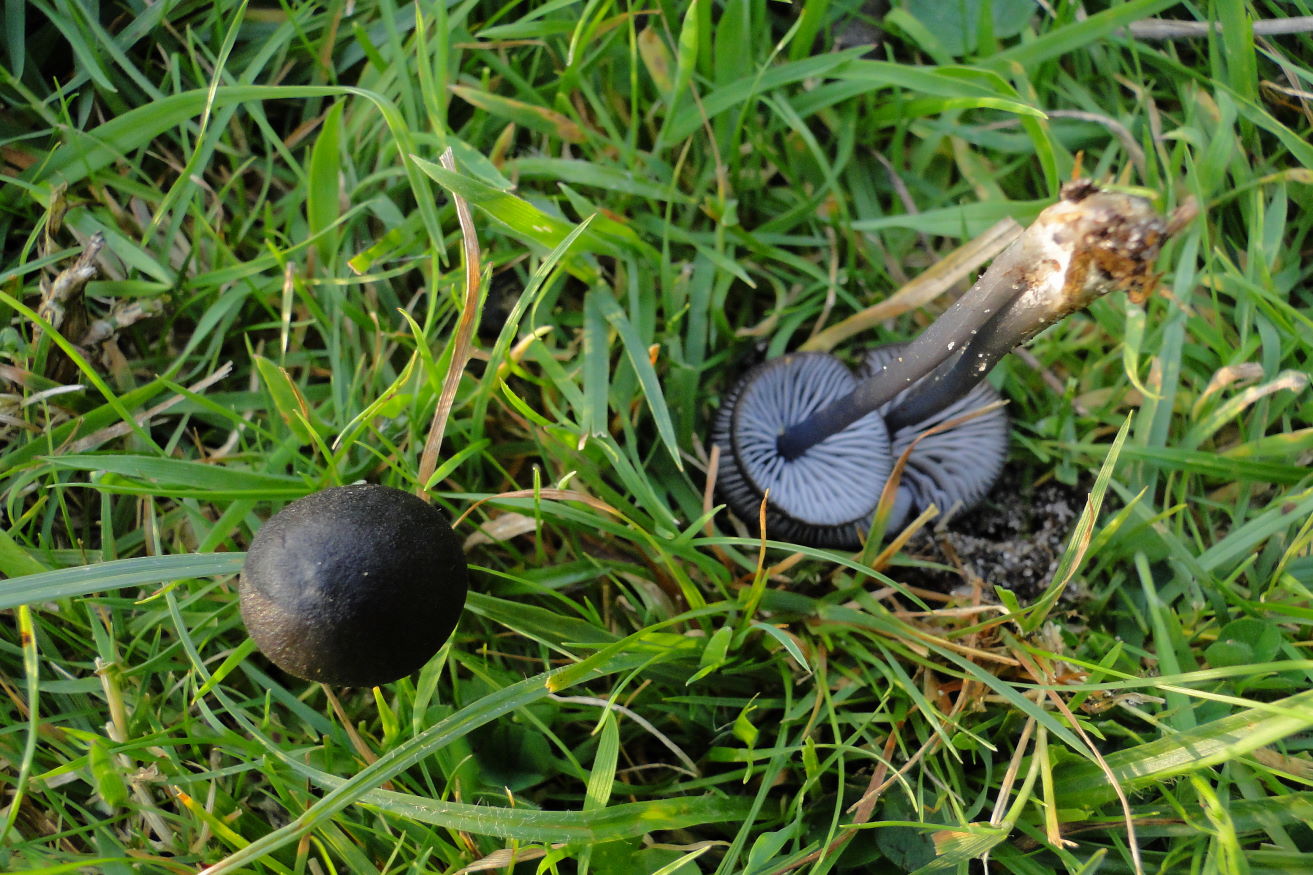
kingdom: Fungi
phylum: Basidiomycota
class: Agaricomycetes
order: Agaricales
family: Entolomataceae
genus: Entoloma
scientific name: Entoloma chalybeum
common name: blåbladet rødblad
